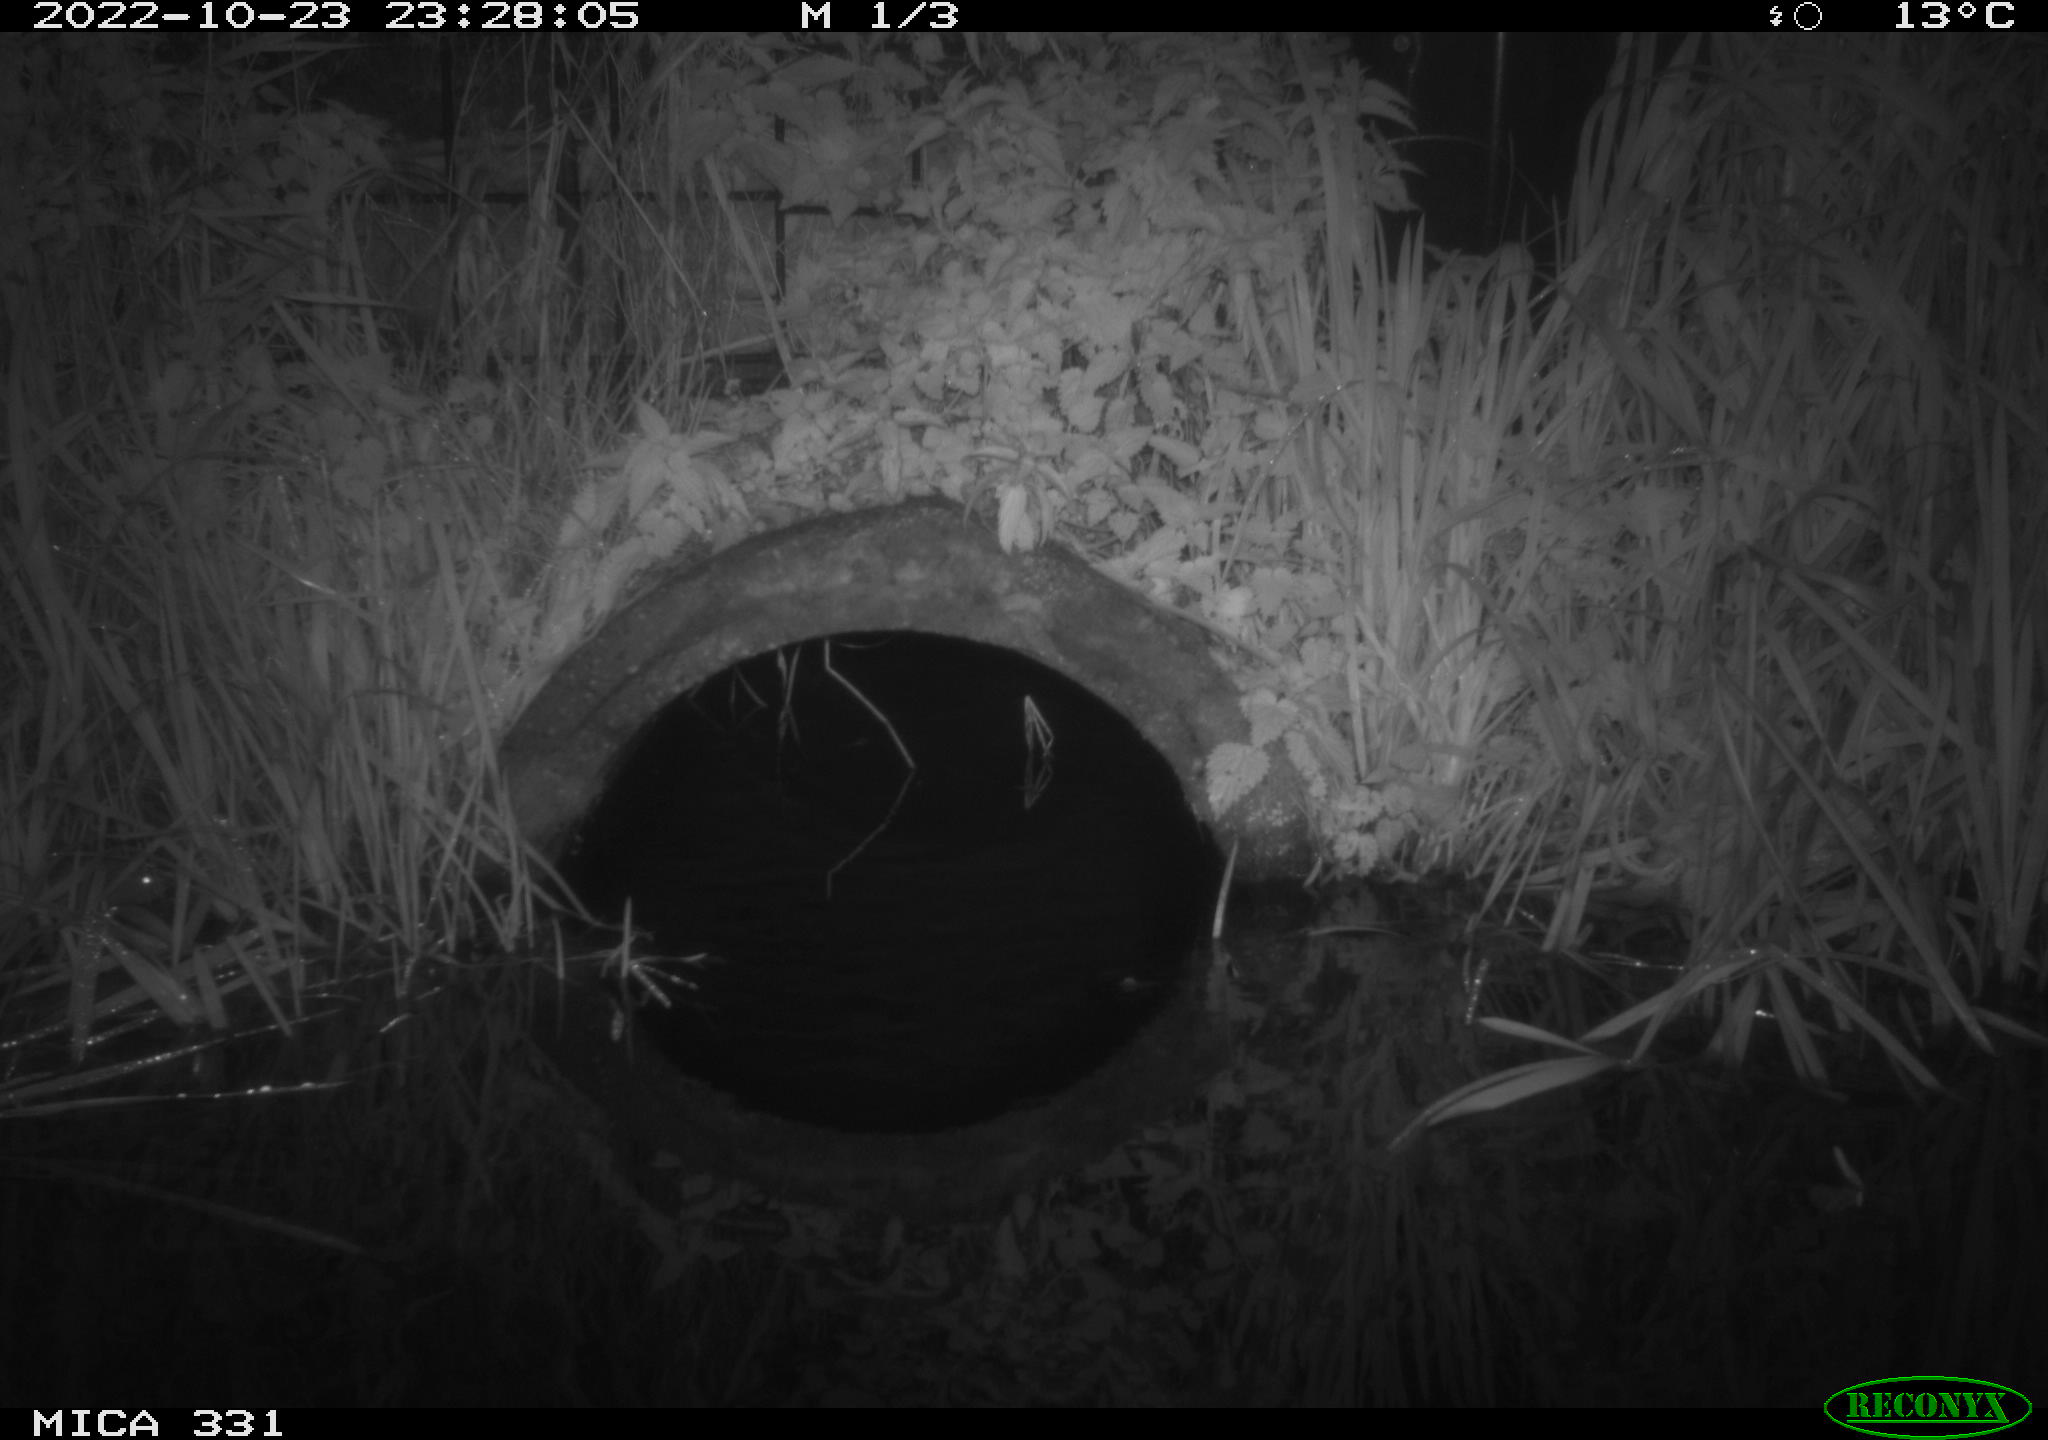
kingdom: Animalia
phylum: Chordata
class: Mammalia
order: Rodentia
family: Muridae
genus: Rattus
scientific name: Rattus norvegicus
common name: Brown rat
